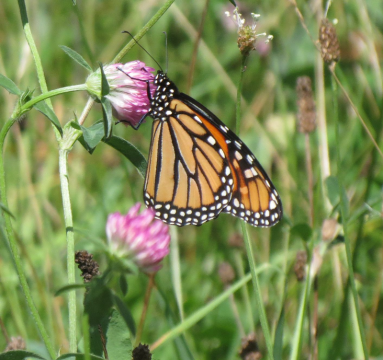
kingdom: Animalia
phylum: Arthropoda
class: Insecta
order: Lepidoptera
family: Nymphalidae
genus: Danaus
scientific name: Danaus plexippus
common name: Monarch
